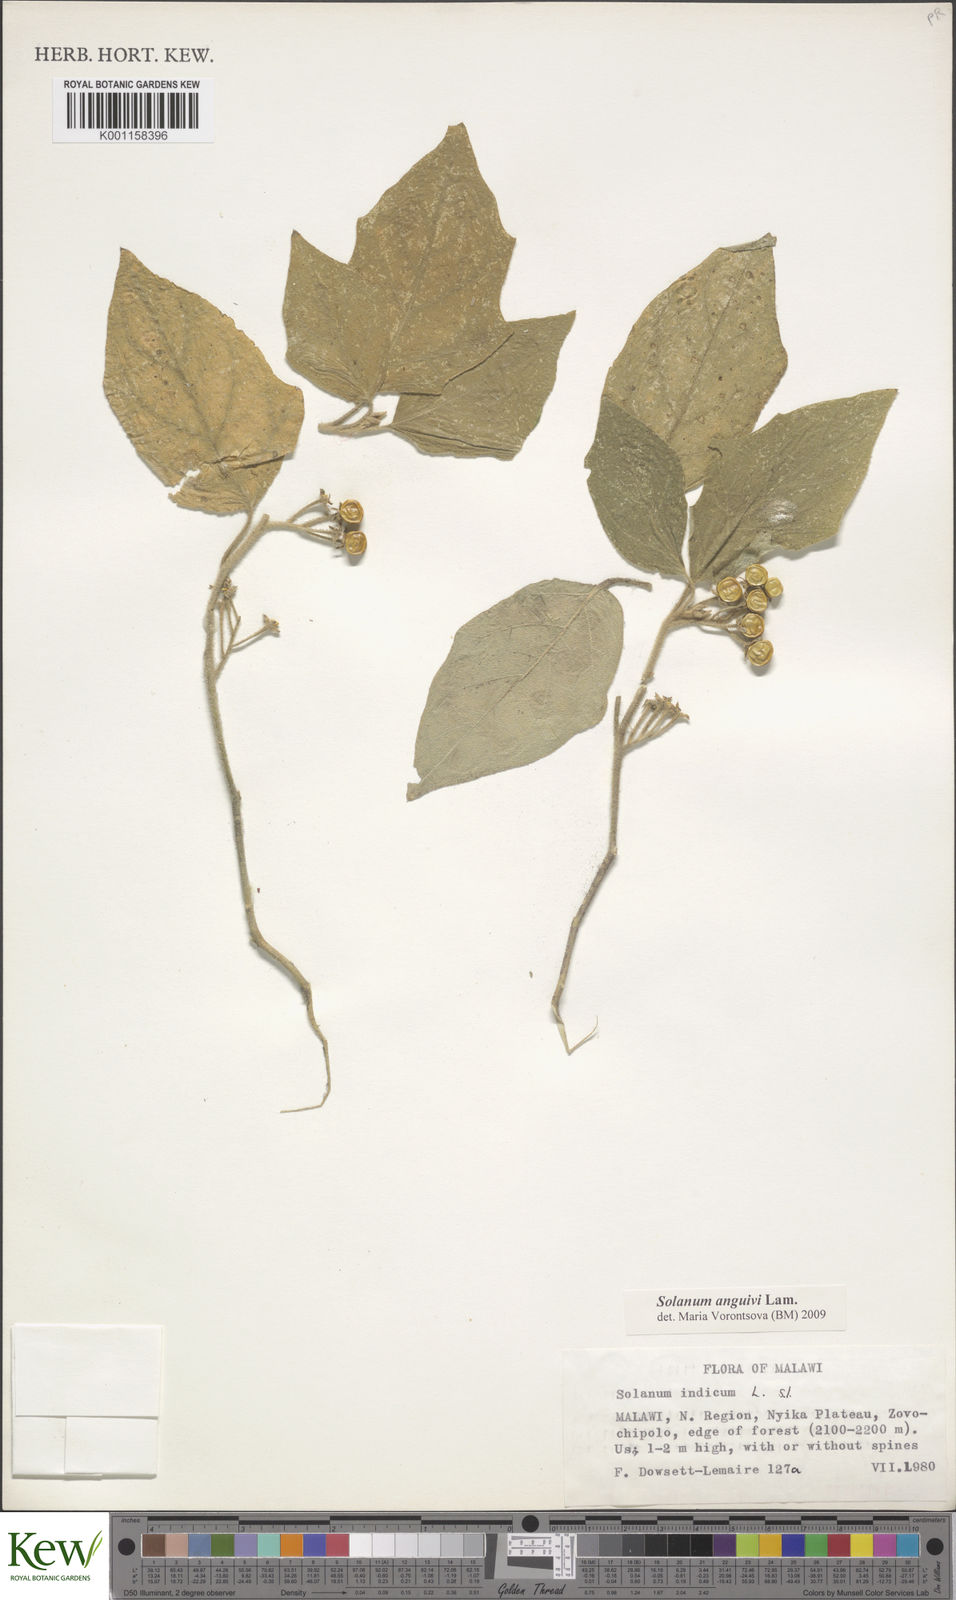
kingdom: Plantae
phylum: Tracheophyta
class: Magnoliopsida
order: Solanales
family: Solanaceae
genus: Solanum
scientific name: Solanum anguivi
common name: Forest bitterberry
